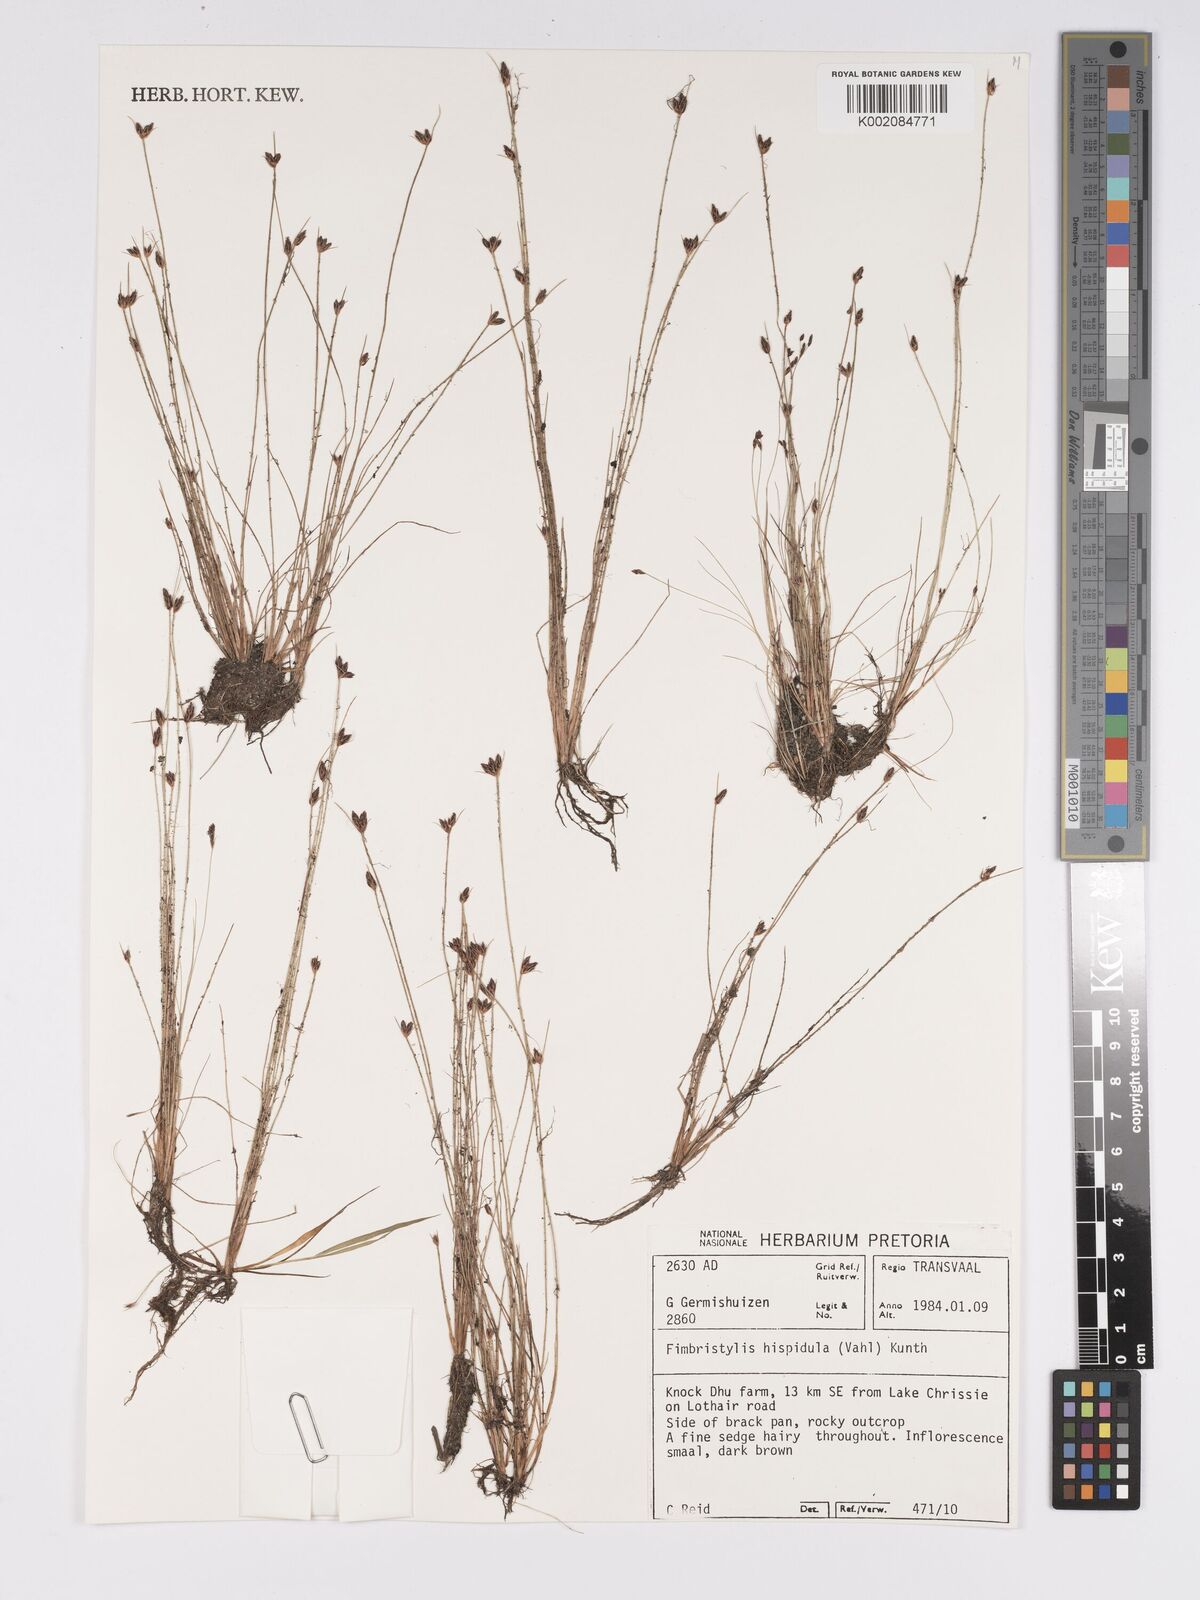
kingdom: Plantae
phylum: Tracheophyta
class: Liliopsida
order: Poales
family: Cyperaceae
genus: Bulbostylis
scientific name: Bulbostylis hispidula
